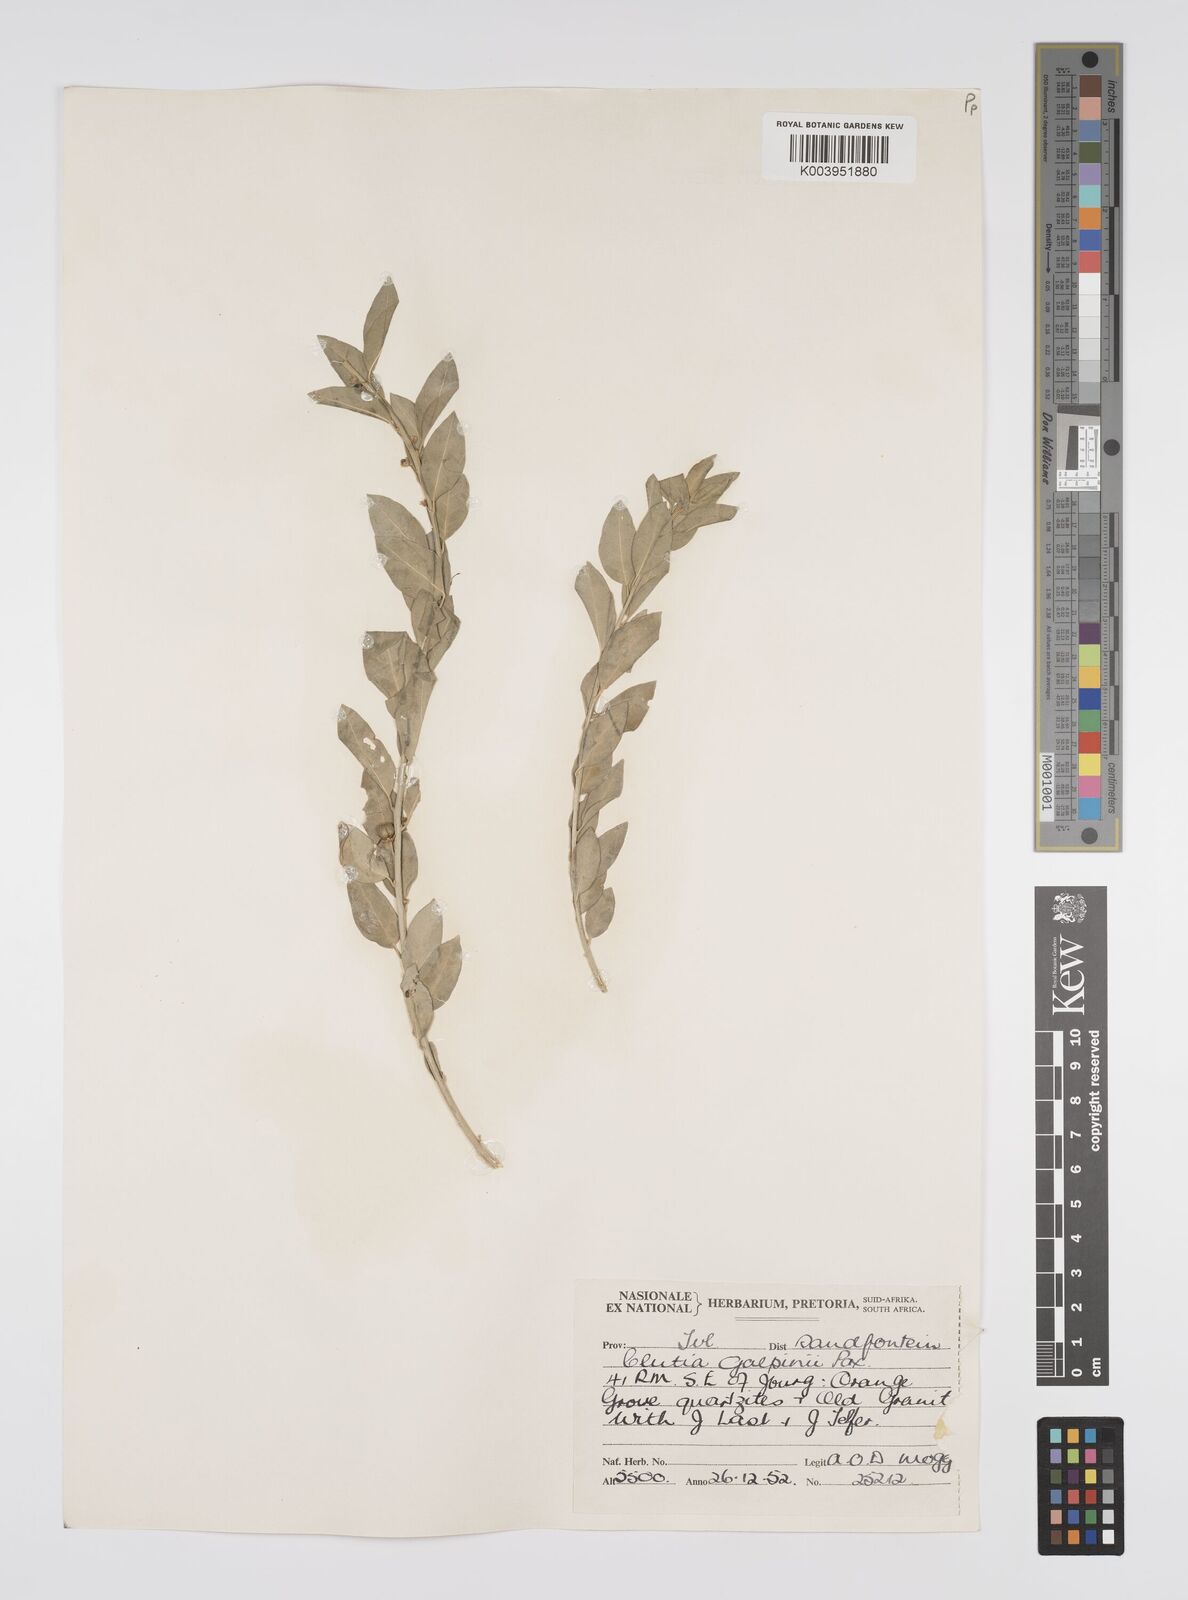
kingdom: Plantae
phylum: Tracheophyta
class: Magnoliopsida
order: Malpighiales
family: Peraceae
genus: Clutia
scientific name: Clutia galpinii
